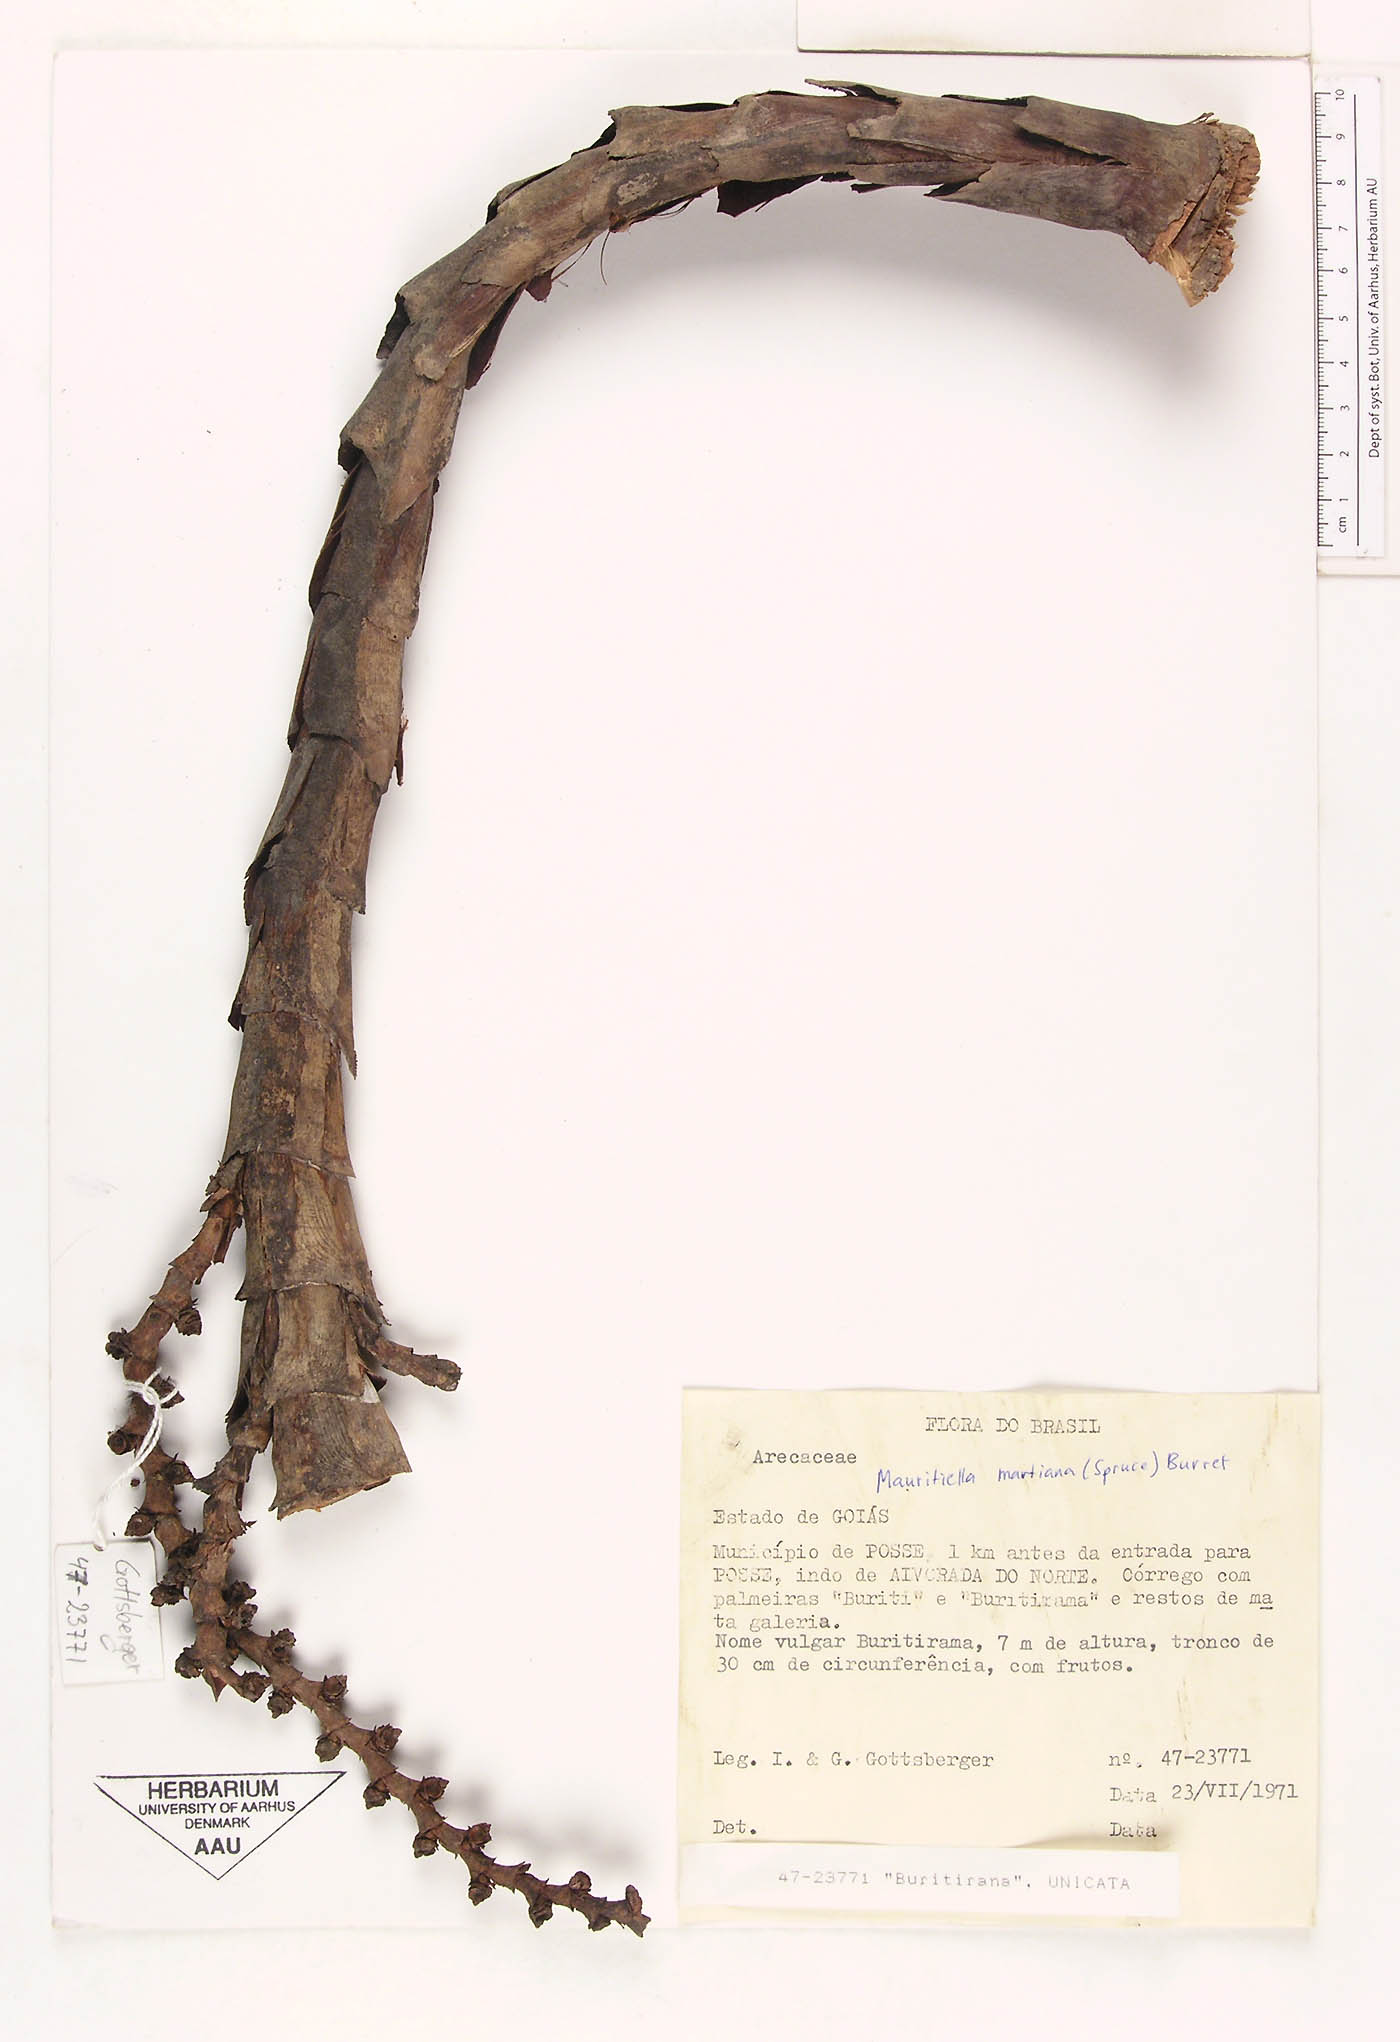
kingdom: Plantae
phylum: Tracheophyta
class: Liliopsida
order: Arecales
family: Arecaceae
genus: Mauritiella
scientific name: Mauritiella armata
